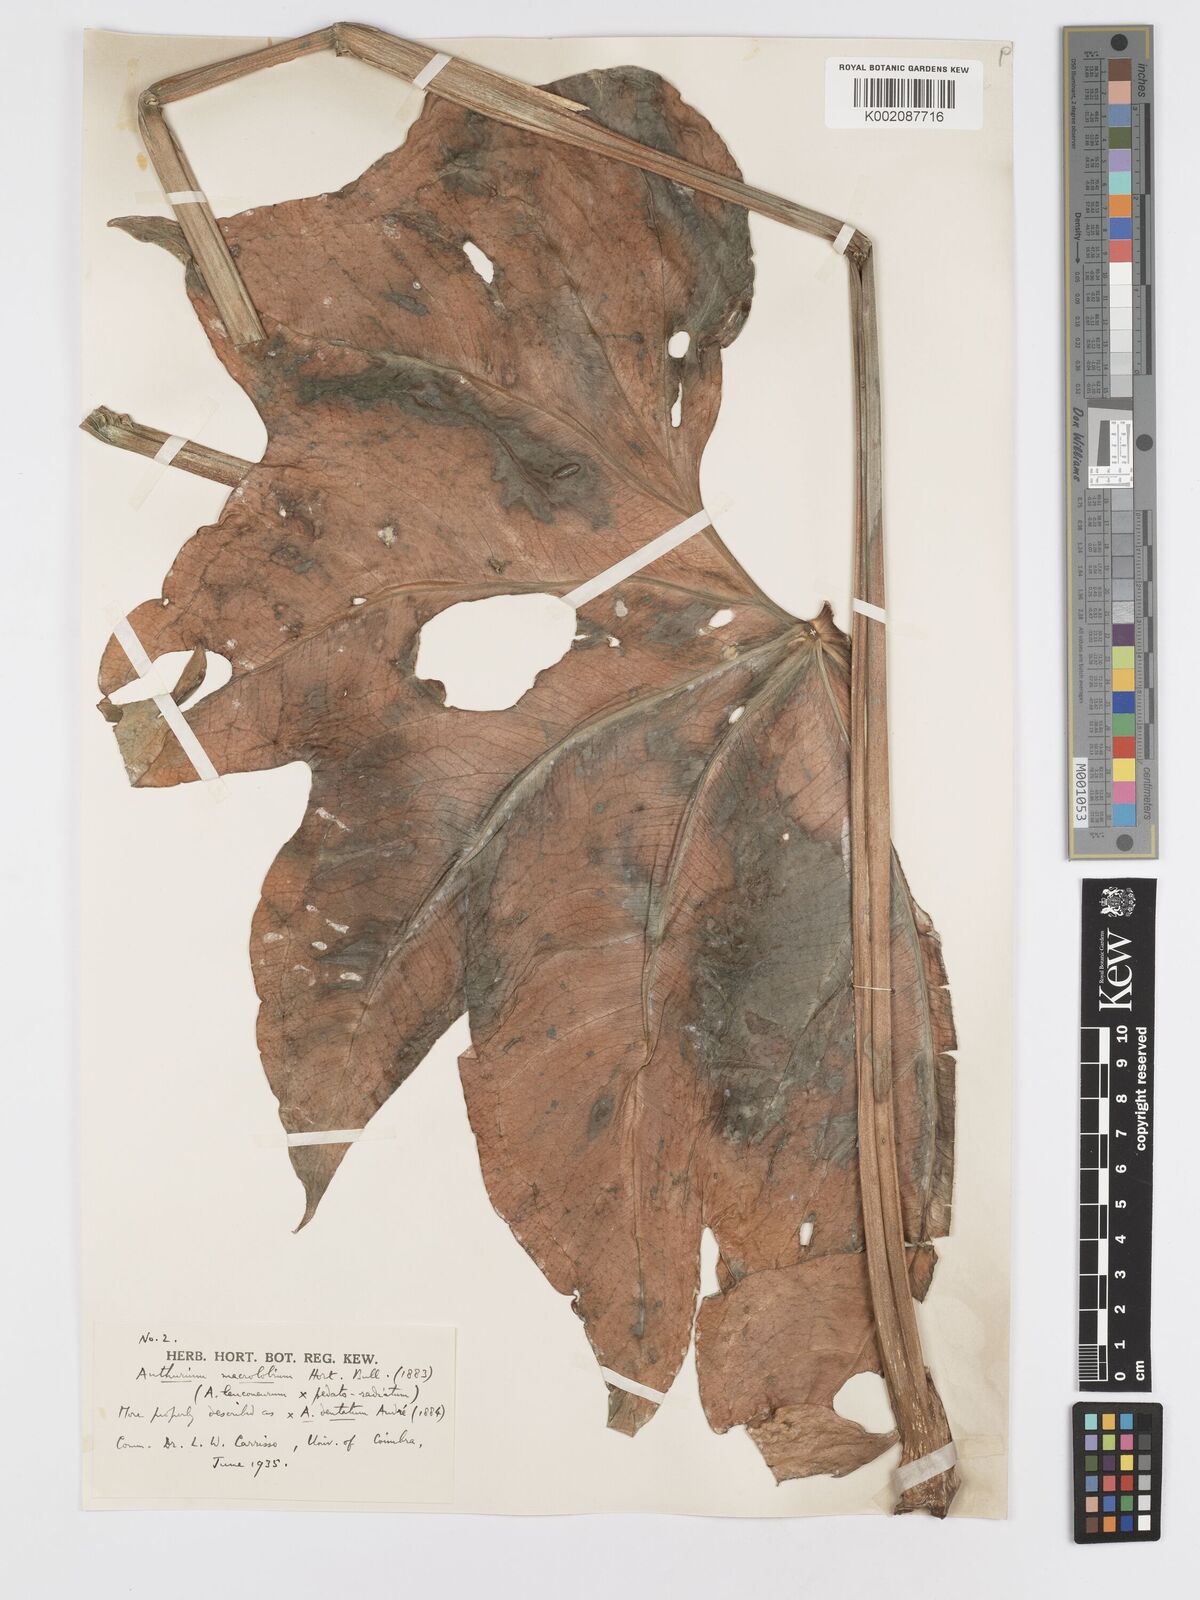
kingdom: Plantae
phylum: Tracheophyta
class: Liliopsida
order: Alismatales
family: Araceae
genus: Anthurium
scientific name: Anthurium leuconeurum
